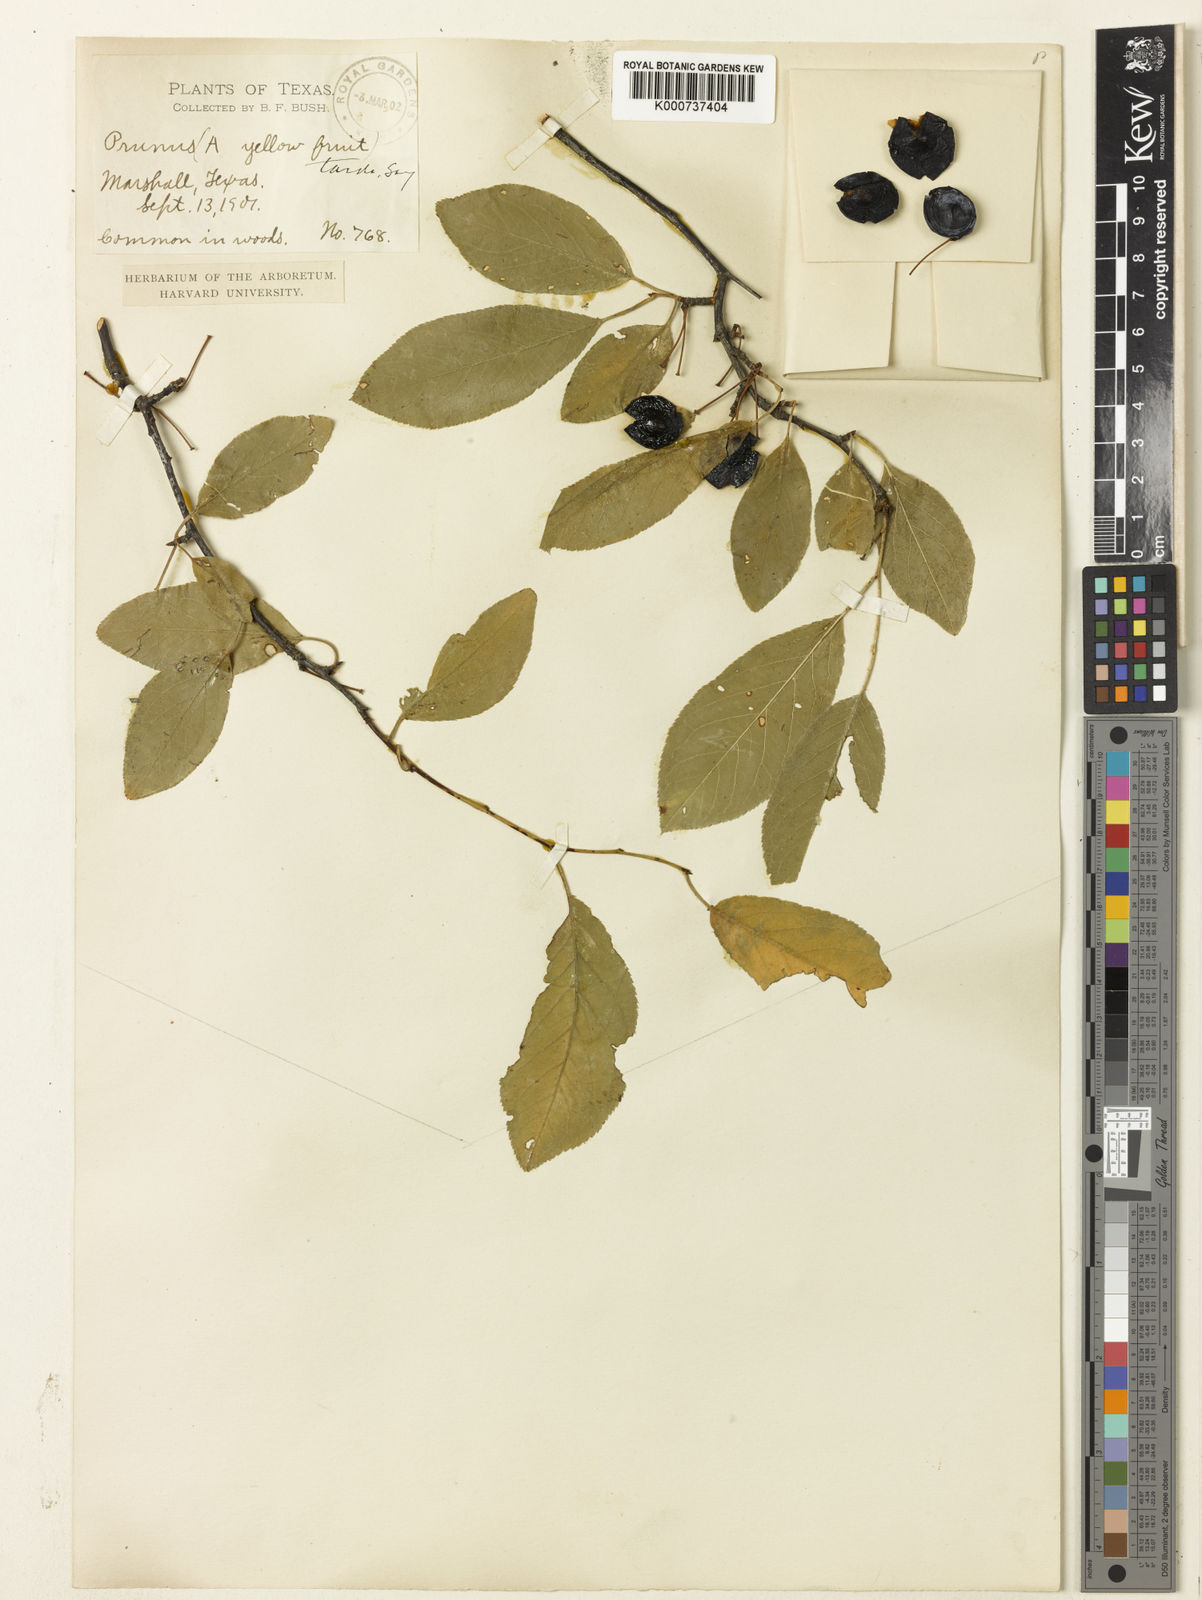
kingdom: Plantae
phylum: Tracheophyta
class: Magnoliopsida
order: Sapindales
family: Meliaceae
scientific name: Meliaceae
